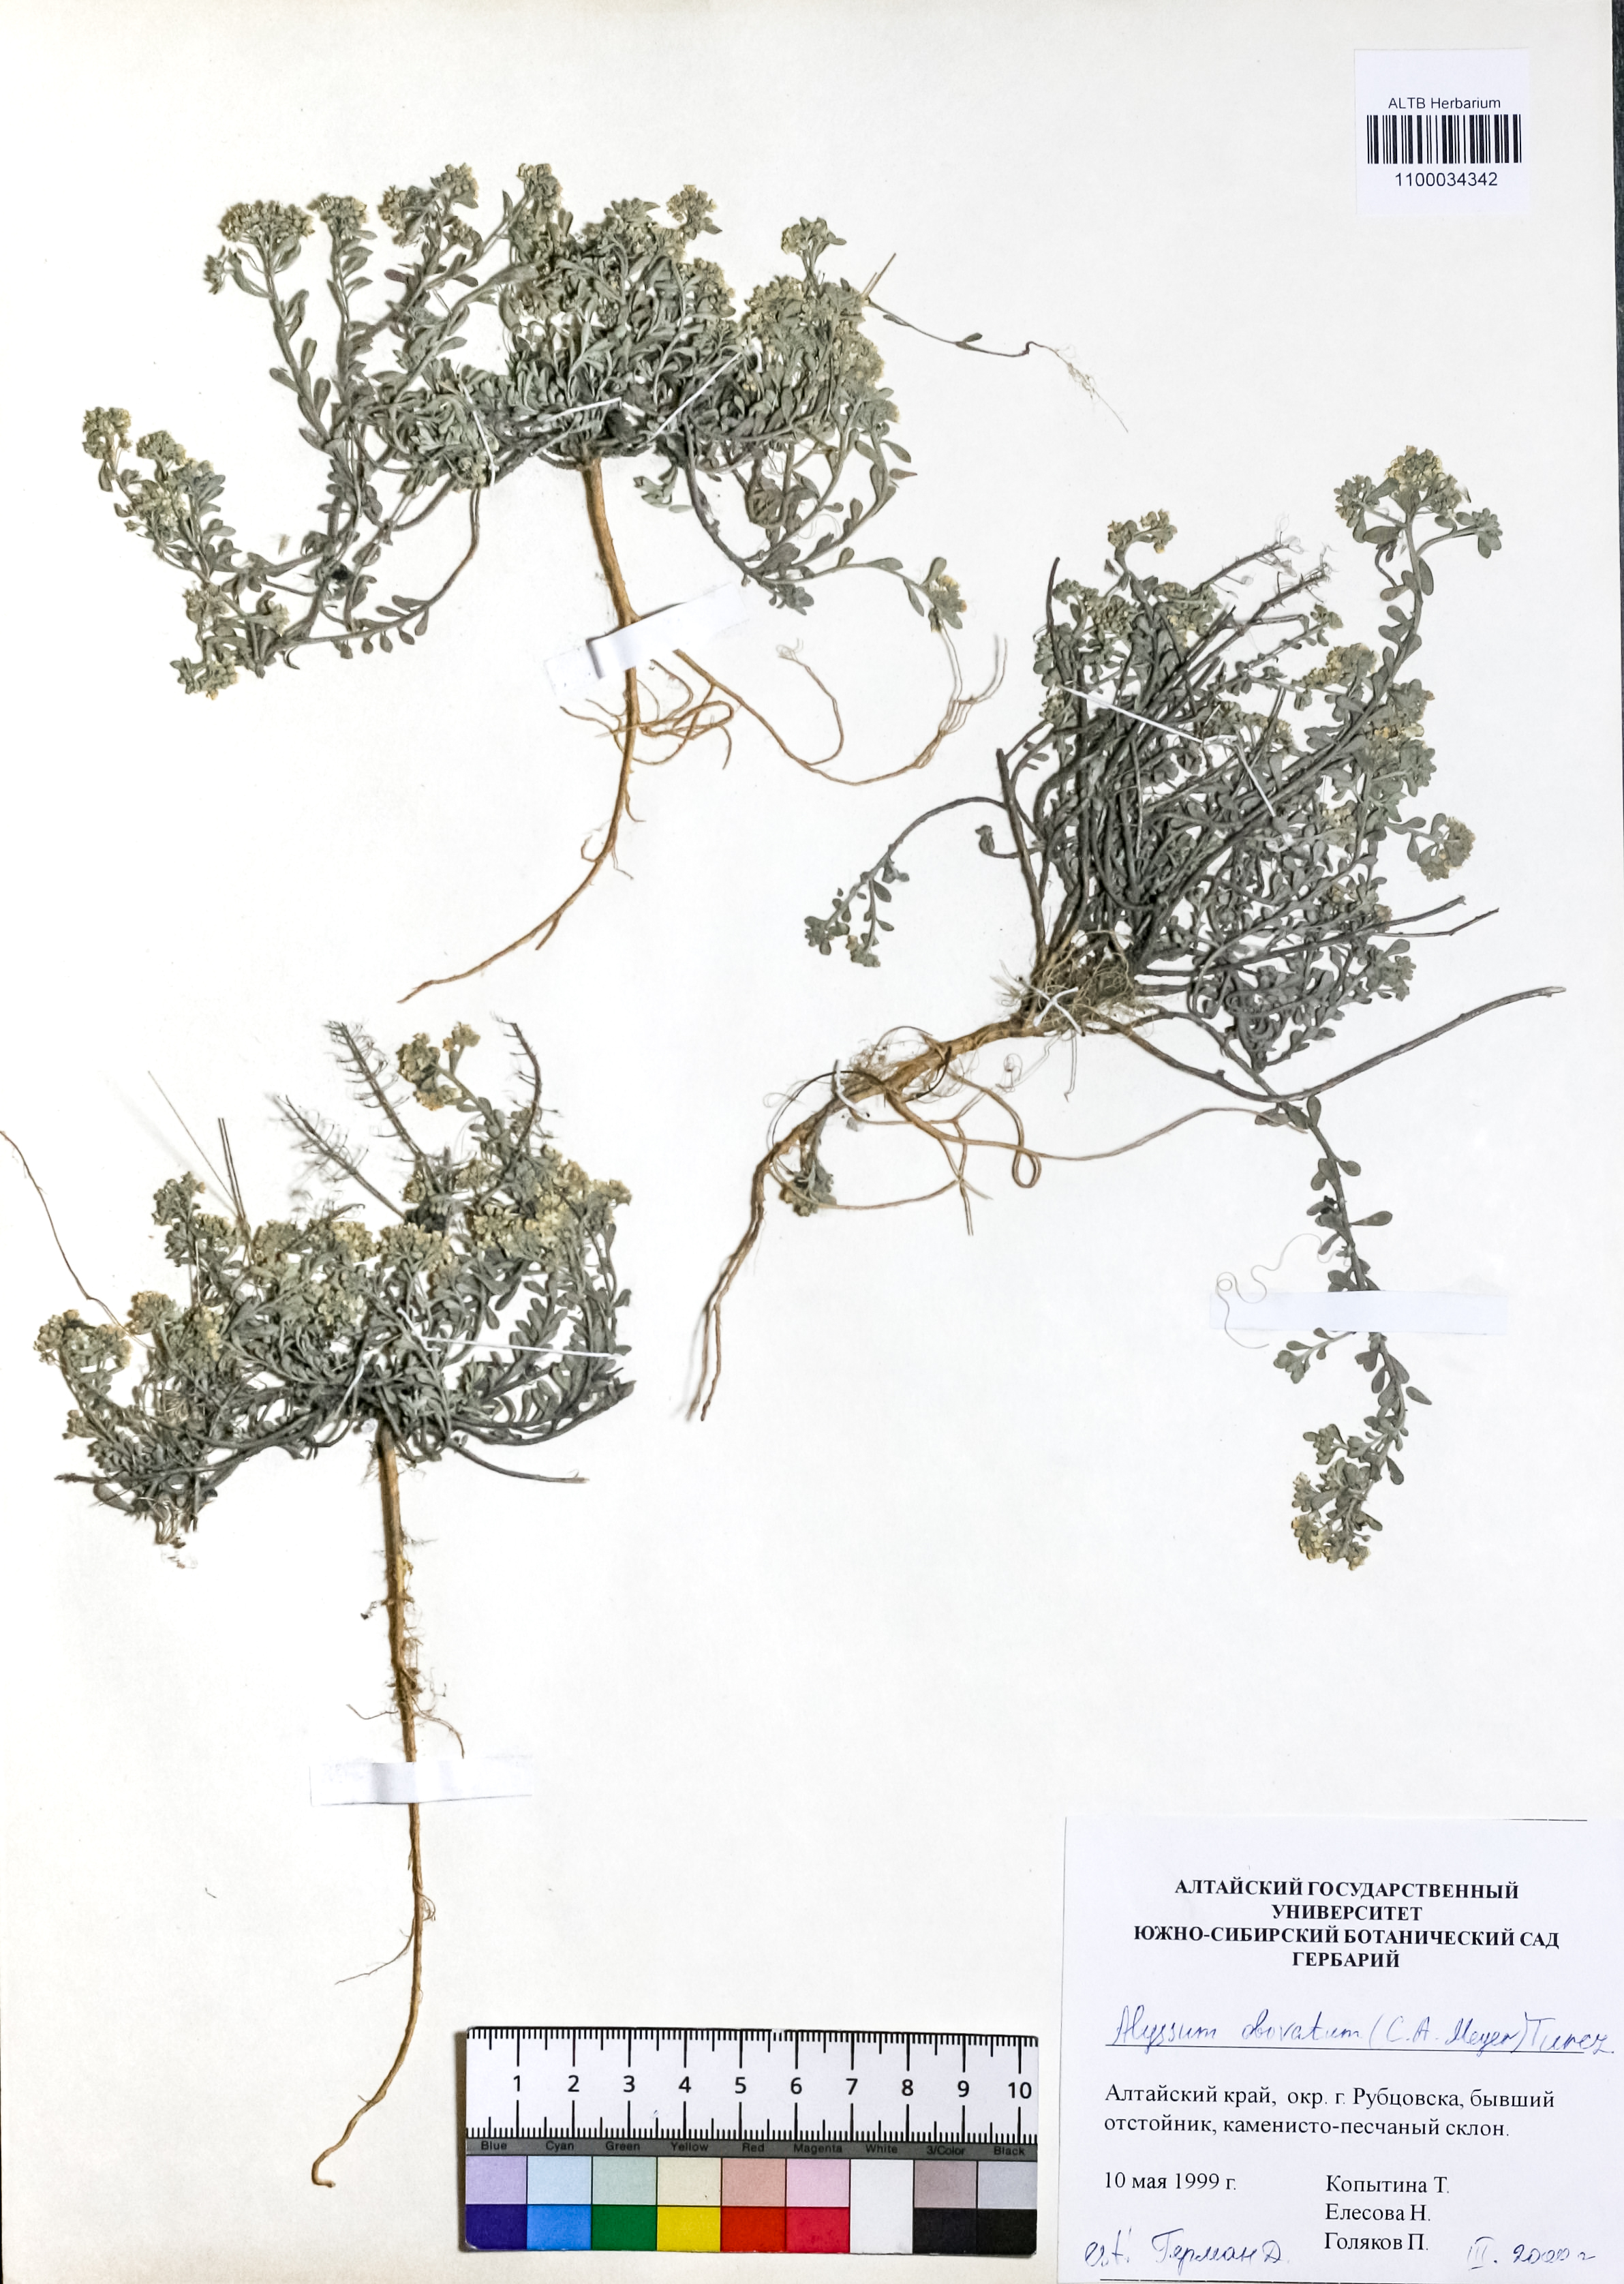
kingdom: Plantae
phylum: Tracheophyta
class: Magnoliopsida
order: Brassicales
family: Brassicaceae
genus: Odontarrhena
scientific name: Odontarrhena obovata
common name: American alyssum
